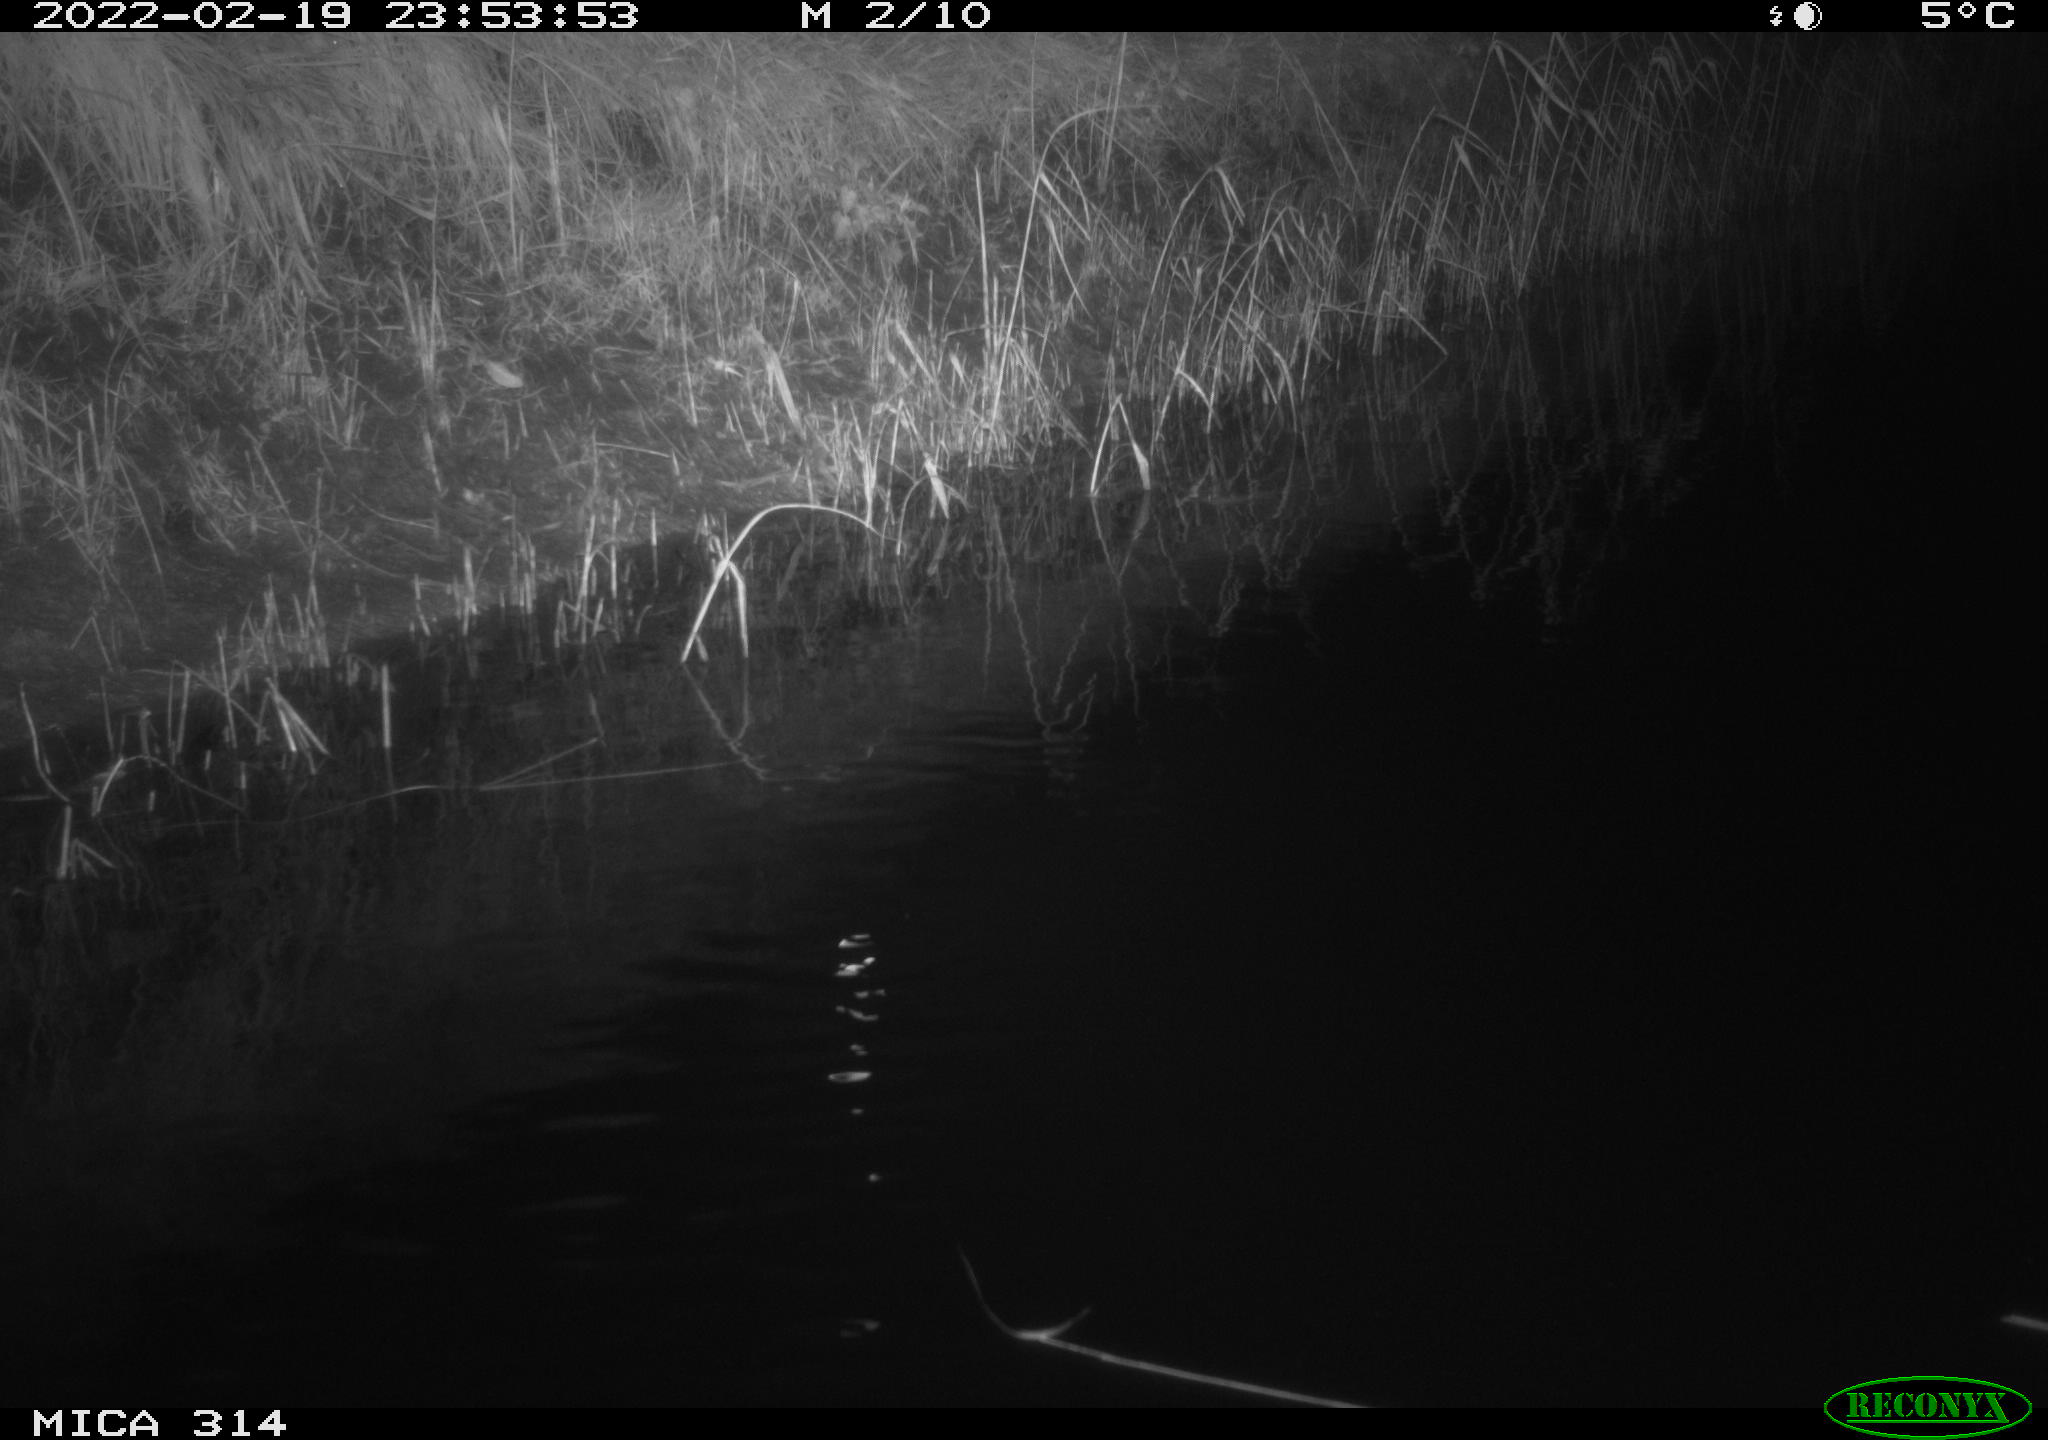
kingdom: Animalia
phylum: Chordata
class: Mammalia
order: Rodentia
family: Muridae
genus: Rattus
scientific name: Rattus norvegicus
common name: Brown rat
